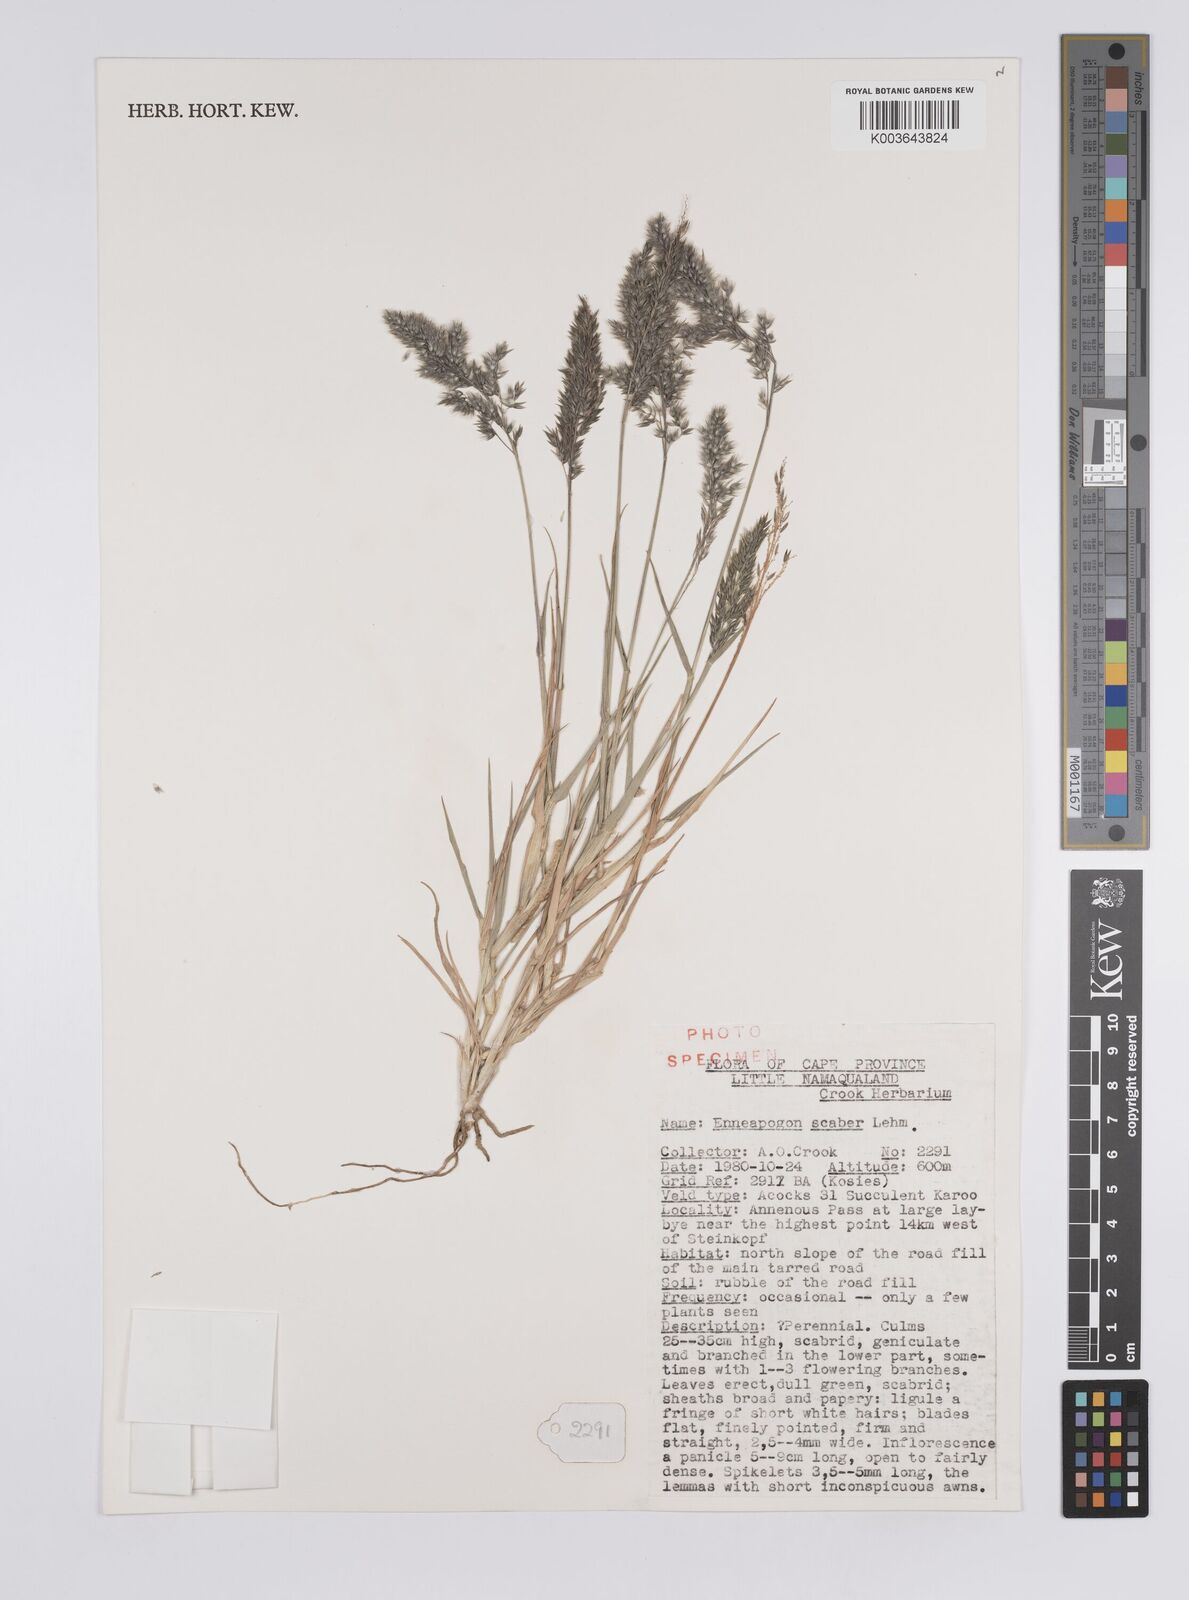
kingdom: Plantae
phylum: Tracheophyta
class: Liliopsida
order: Poales
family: Poaceae
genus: Enneapogon
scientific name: Enneapogon scaber
